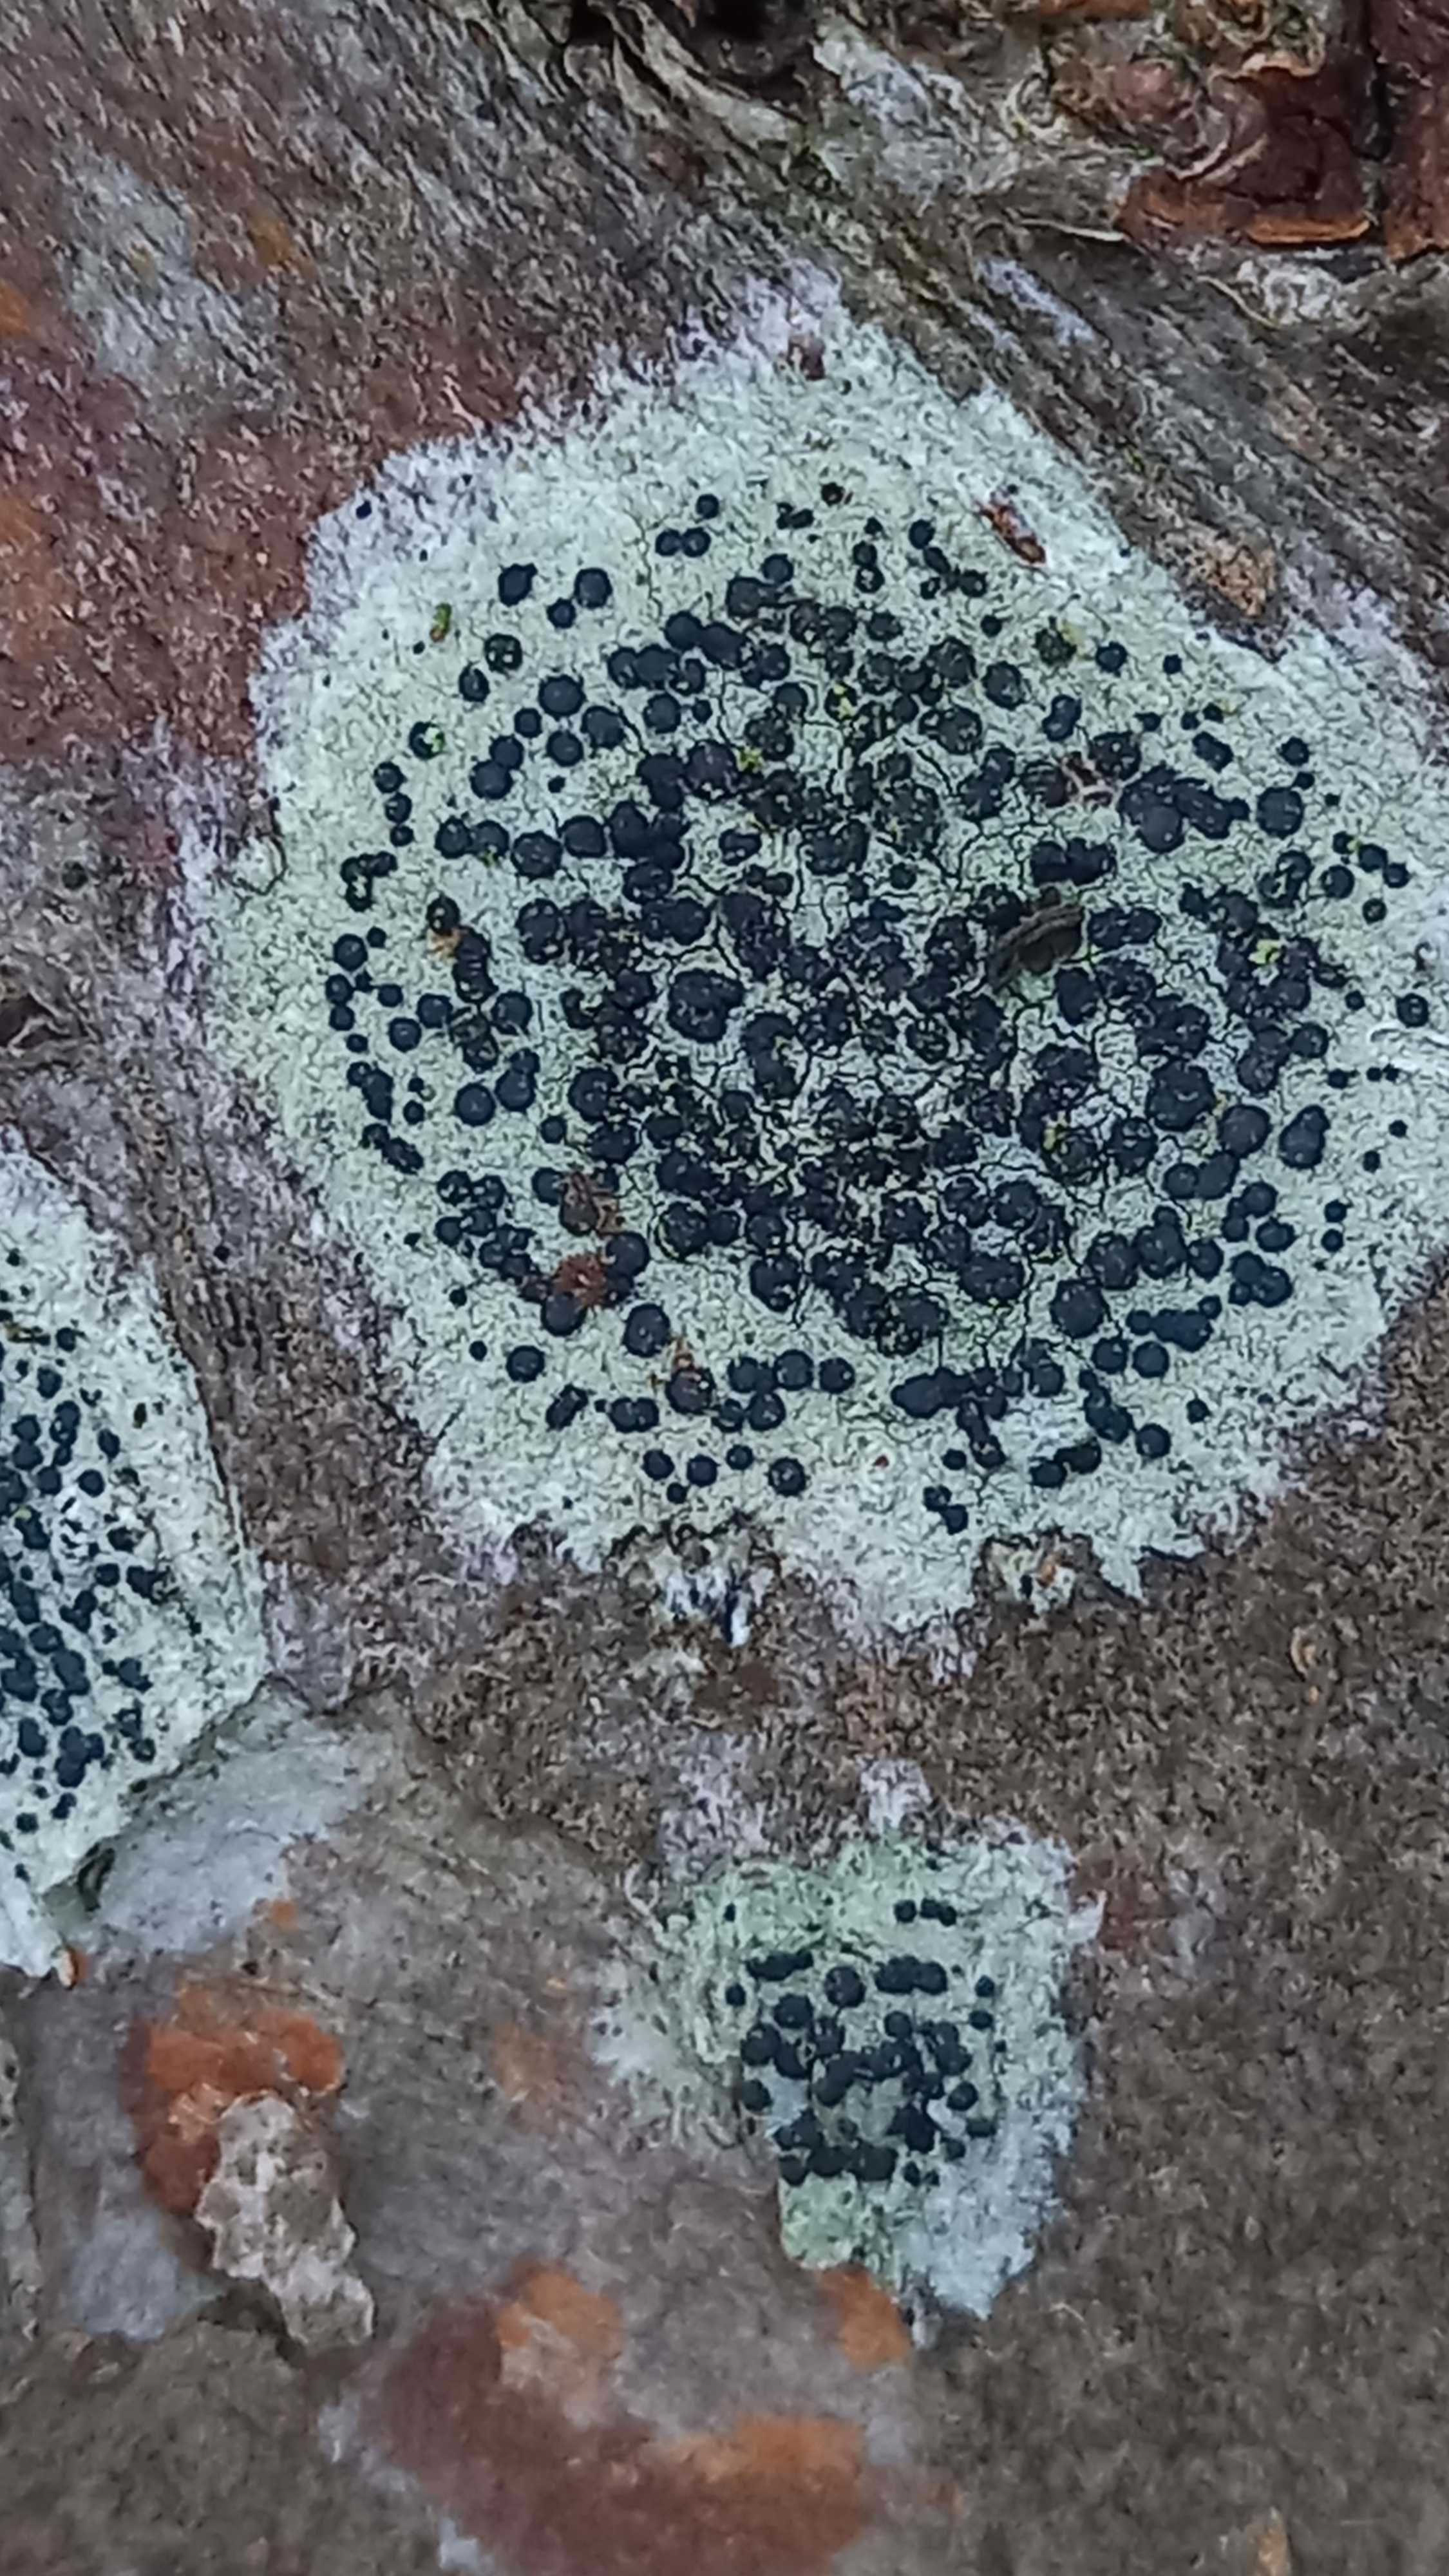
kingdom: Fungi
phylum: Ascomycota
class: Lecanoromycetes
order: Lecanorales
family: Lecanoraceae
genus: Lecidella
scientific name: Lecidella elaeochroma
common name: grågrøn skivelav
